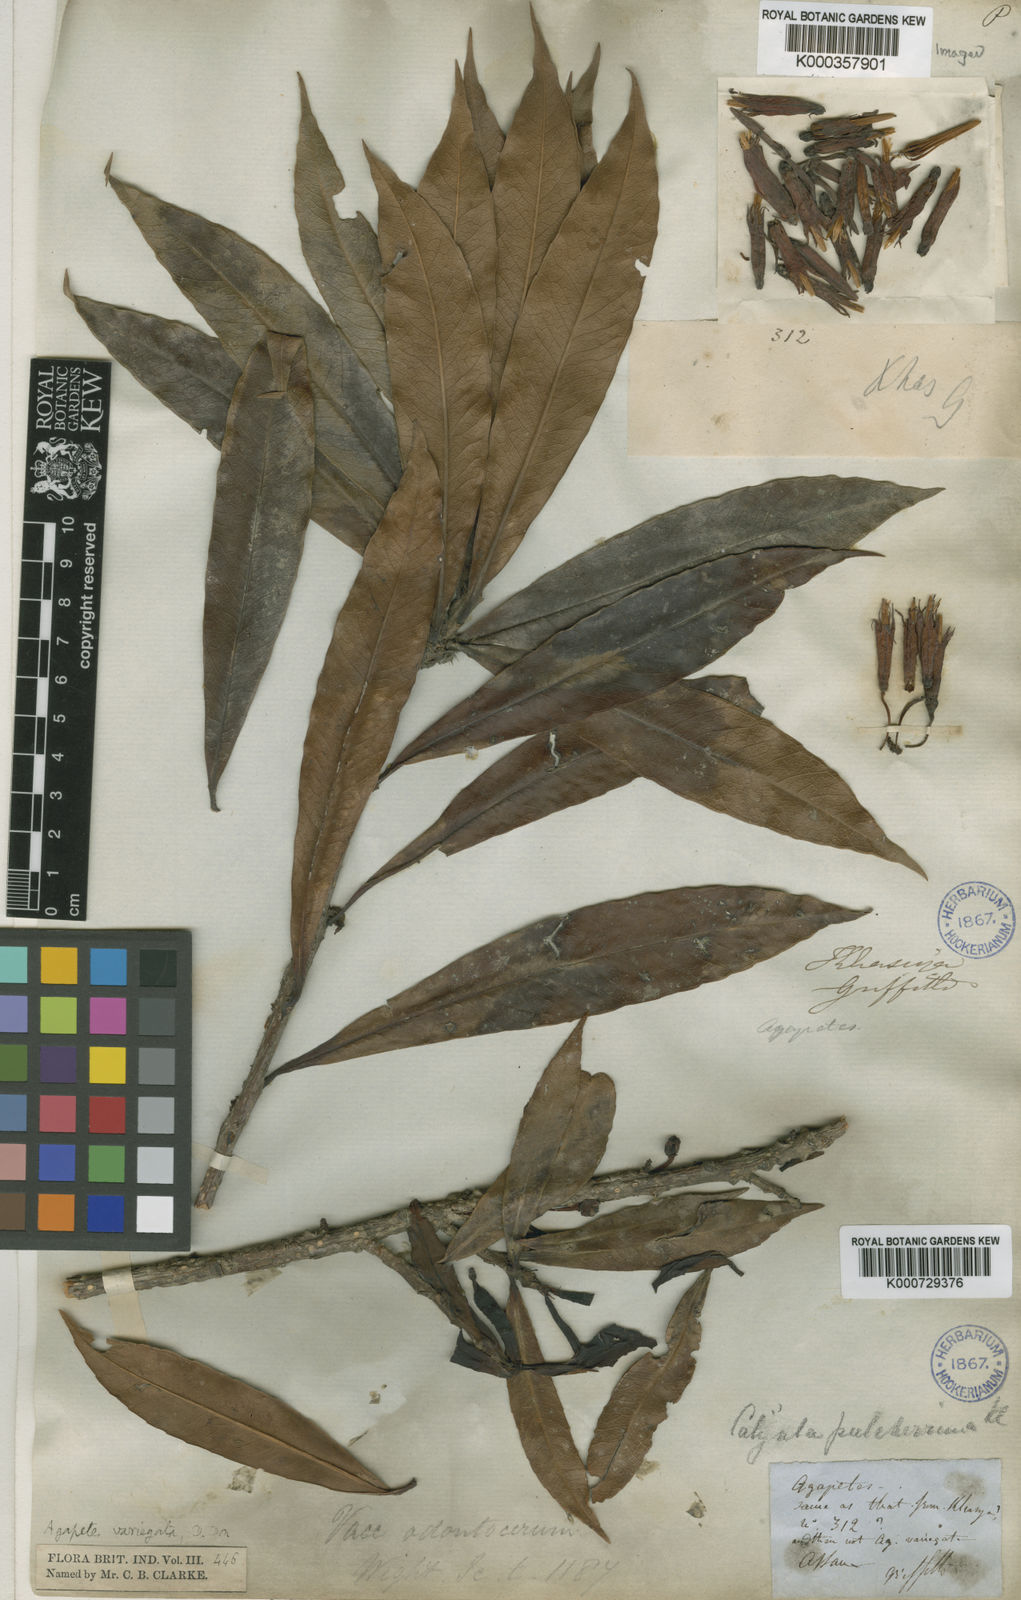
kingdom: Plantae
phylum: Tracheophyta
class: Magnoliopsida
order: Ericales
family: Ericaceae
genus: Agapetes
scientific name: Agapetes odontocera
